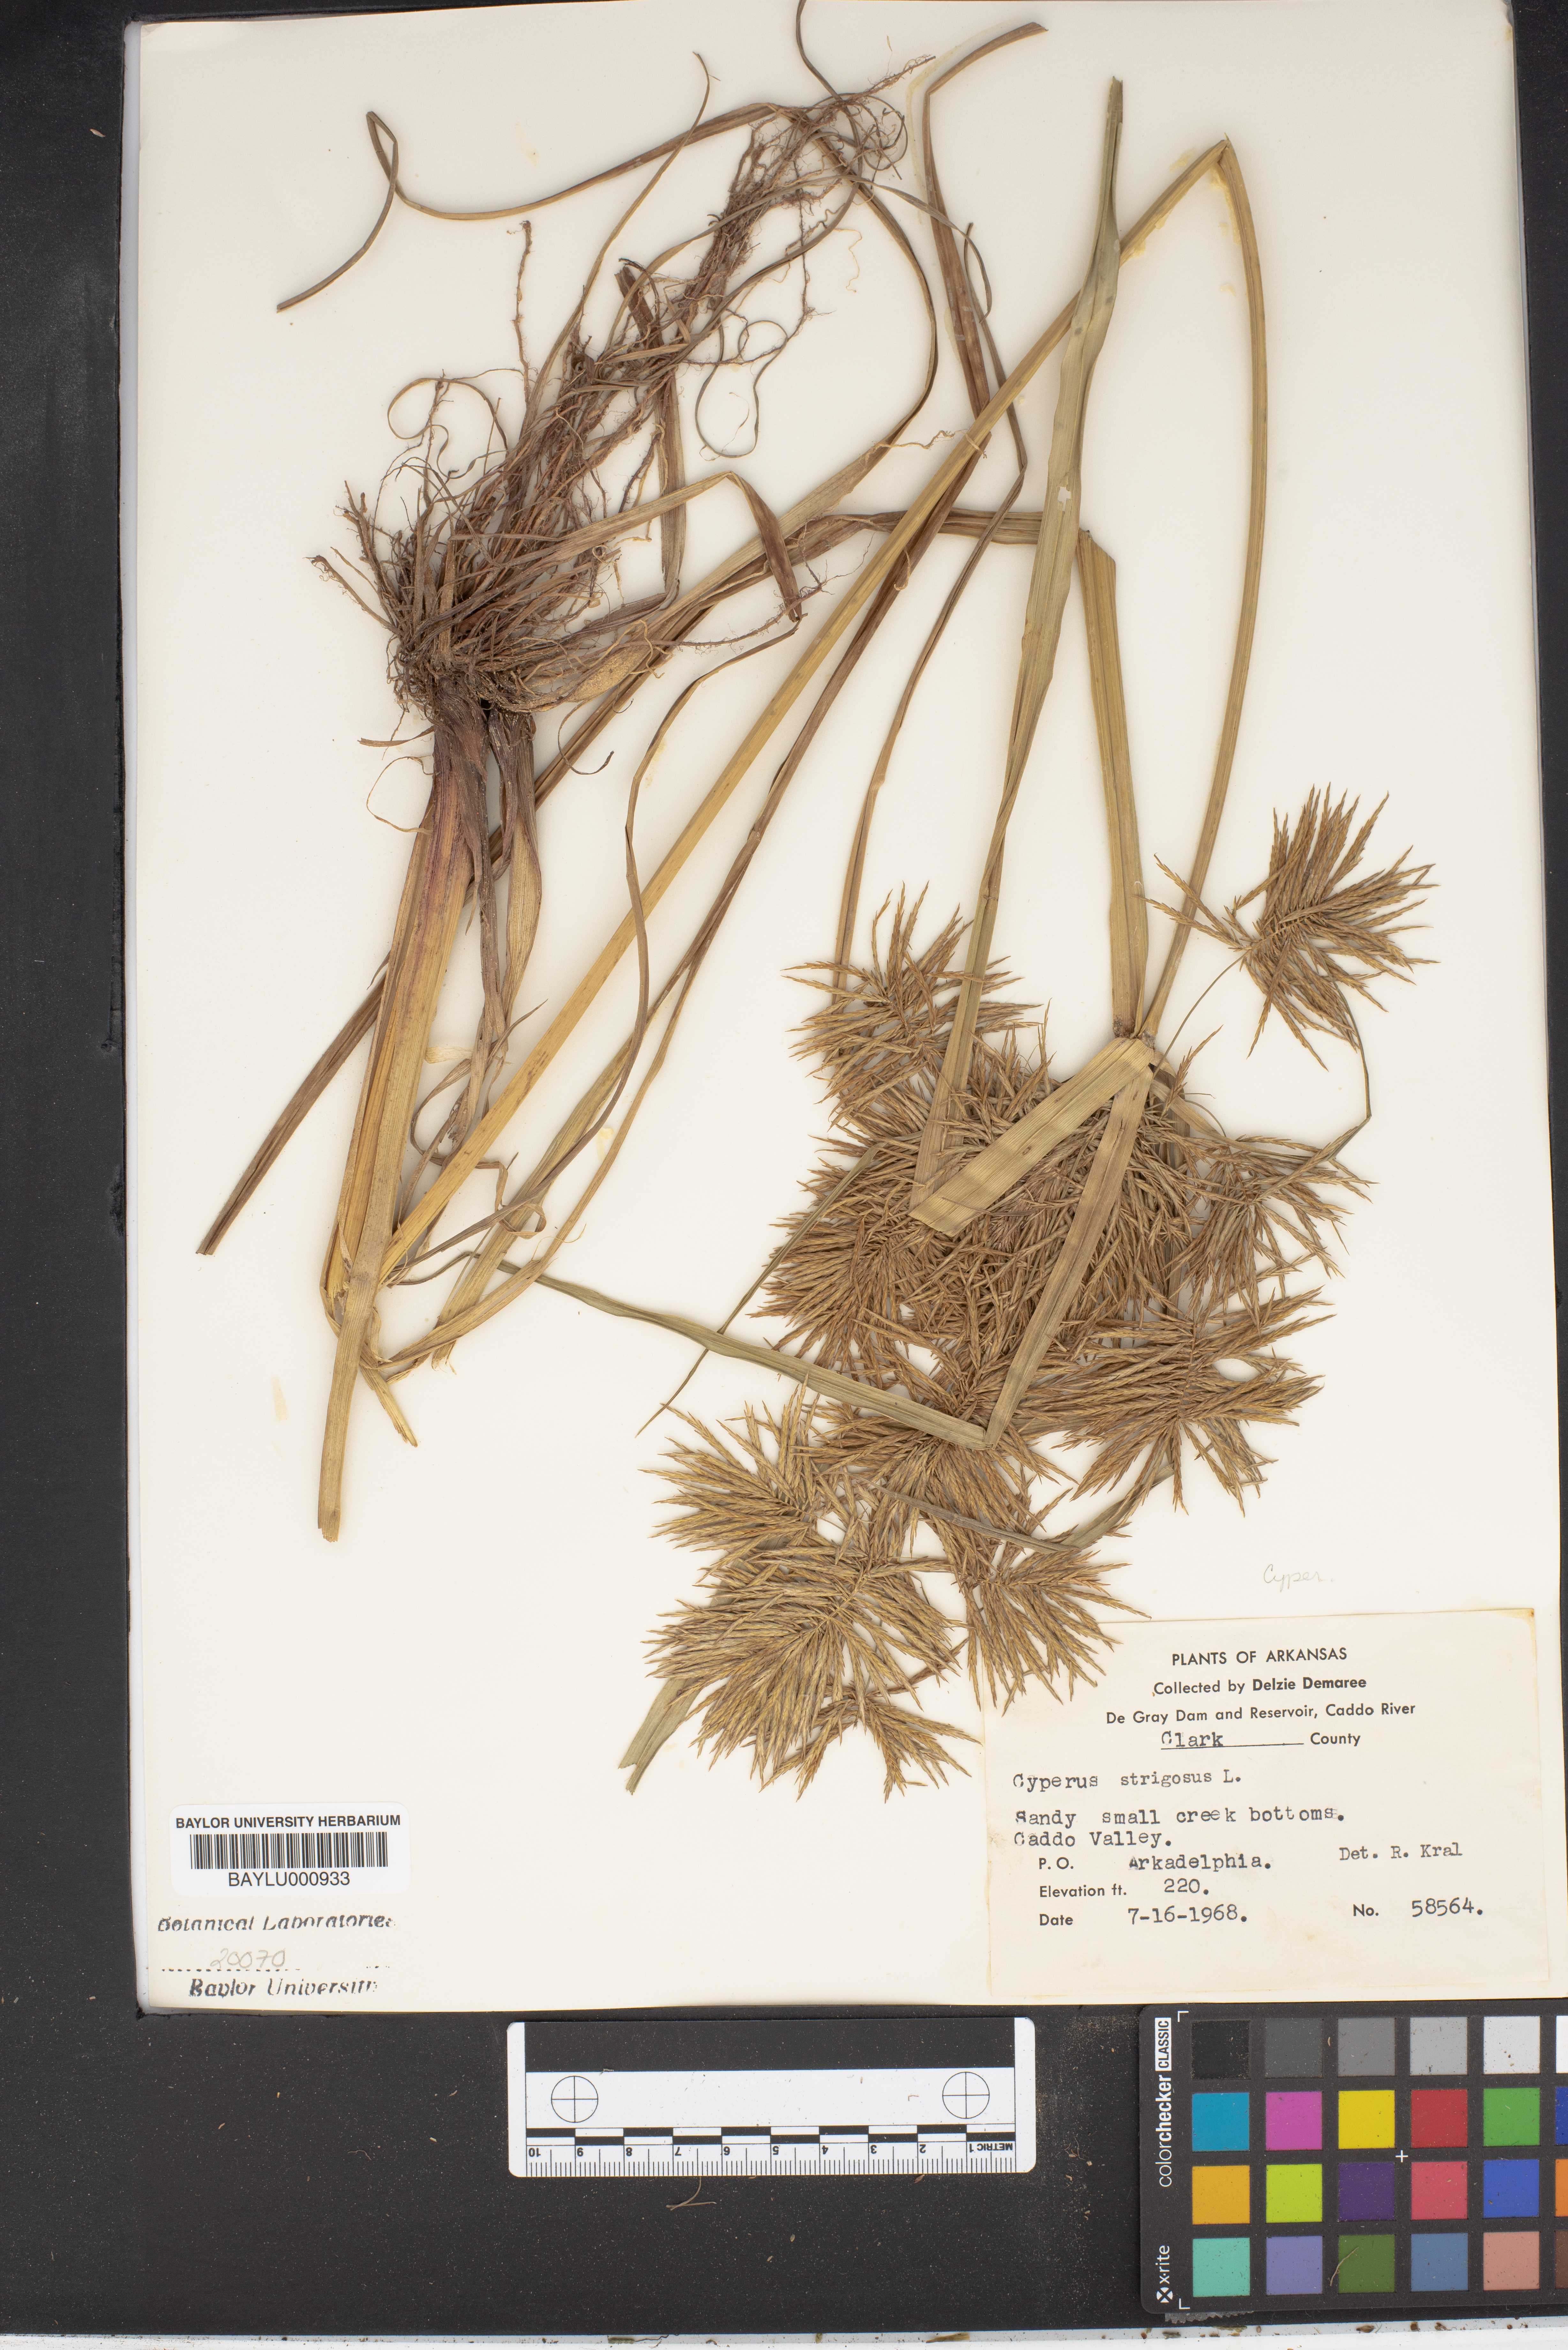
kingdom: Plantae
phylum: Tracheophyta
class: Liliopsida
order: Poales
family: Cyperaceae
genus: Cyperus
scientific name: Cyperus strigosus
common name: False nutsedge
